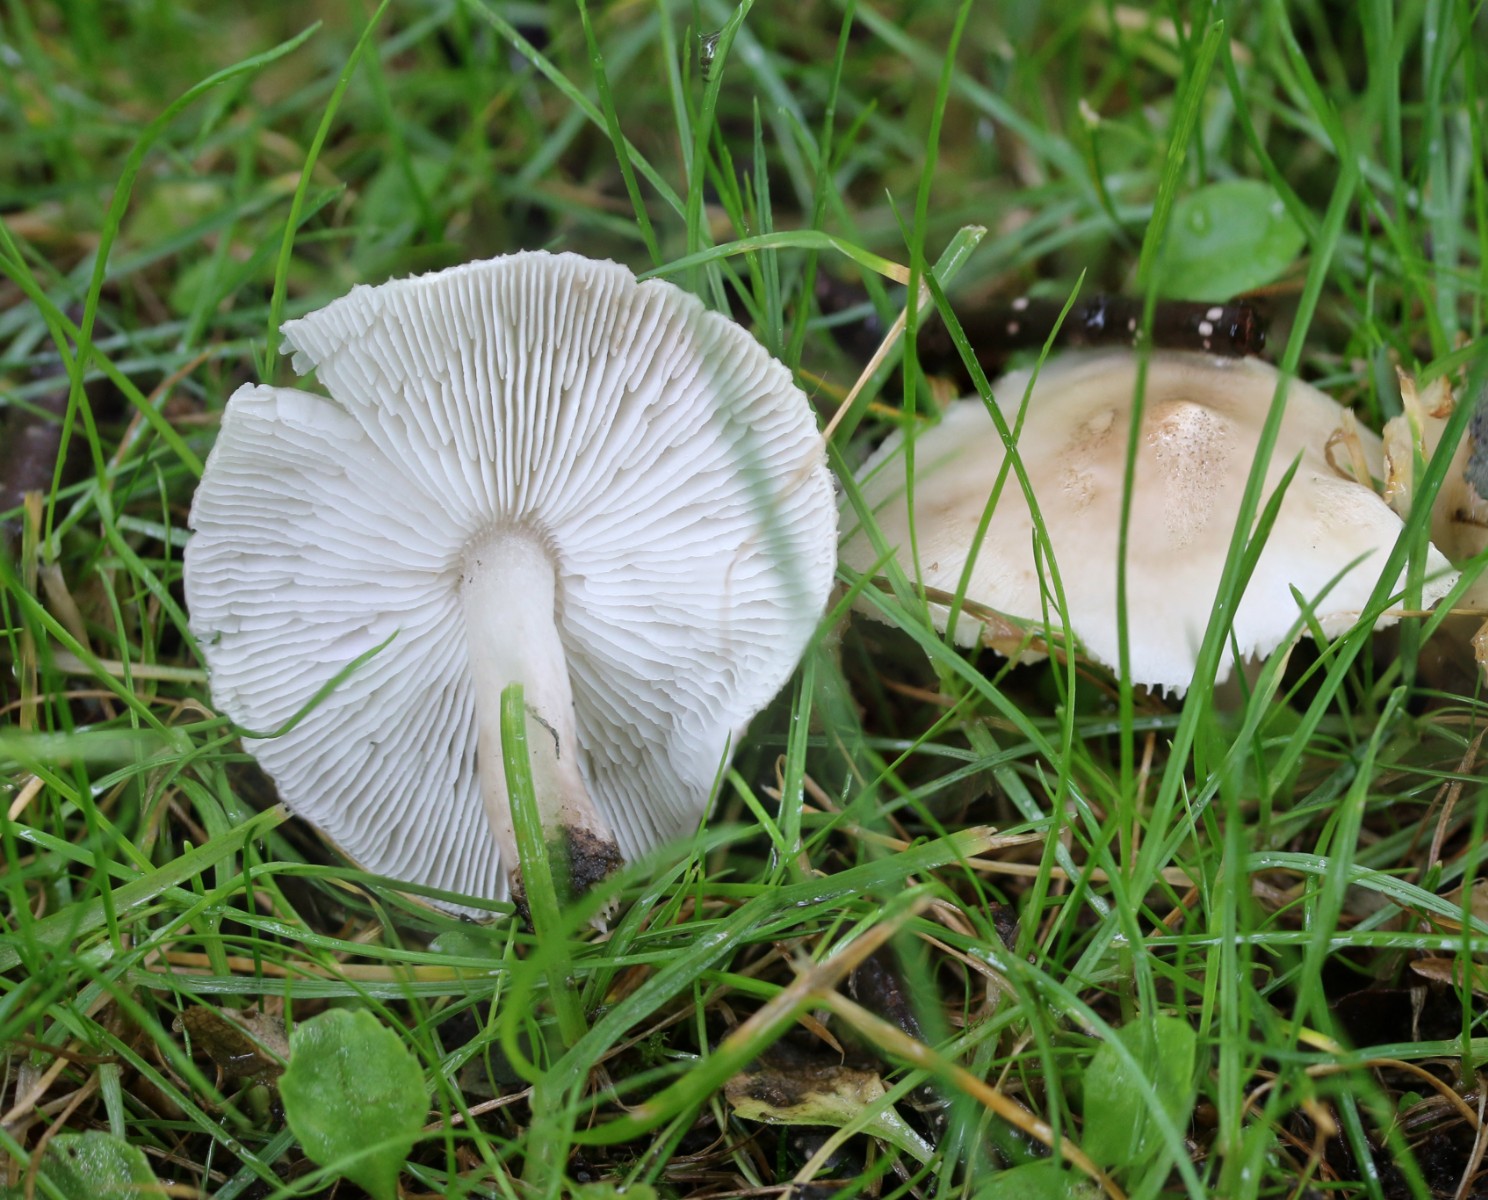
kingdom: Fungi
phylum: Basidiomycota
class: Agaricomycetes
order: Agaricales
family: Tricholomataceae
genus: Tricholoma
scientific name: Tricholoma argyraceum
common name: spids ridderhat
